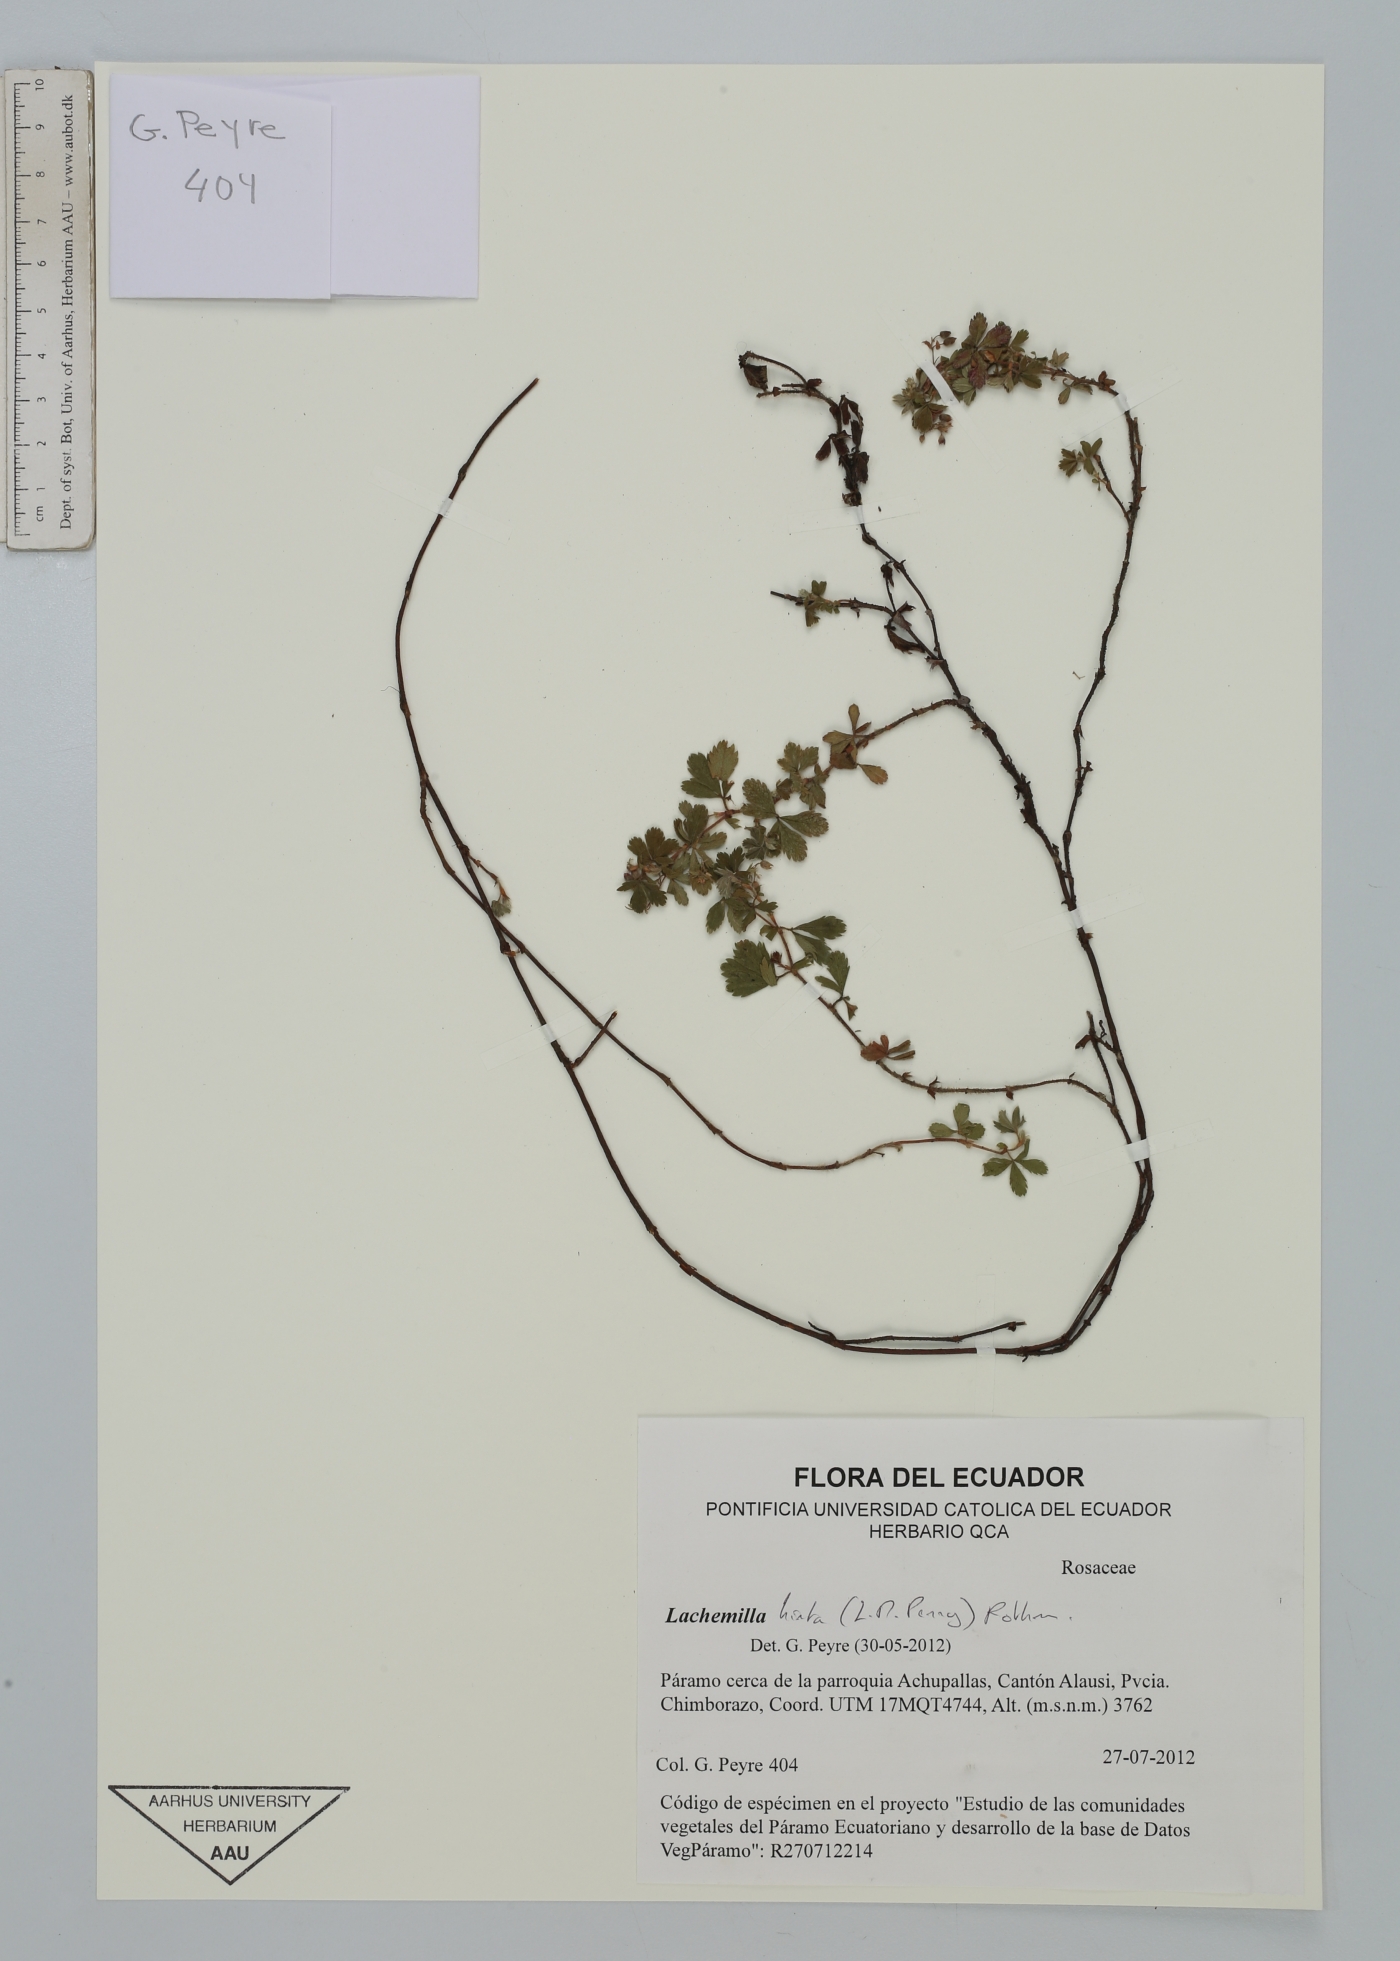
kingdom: Plantae
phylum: Tracheophyta
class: Magnoliopsida
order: Rosales
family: Rosaceae
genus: Lachemilla
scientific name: Lachemilla hirta
